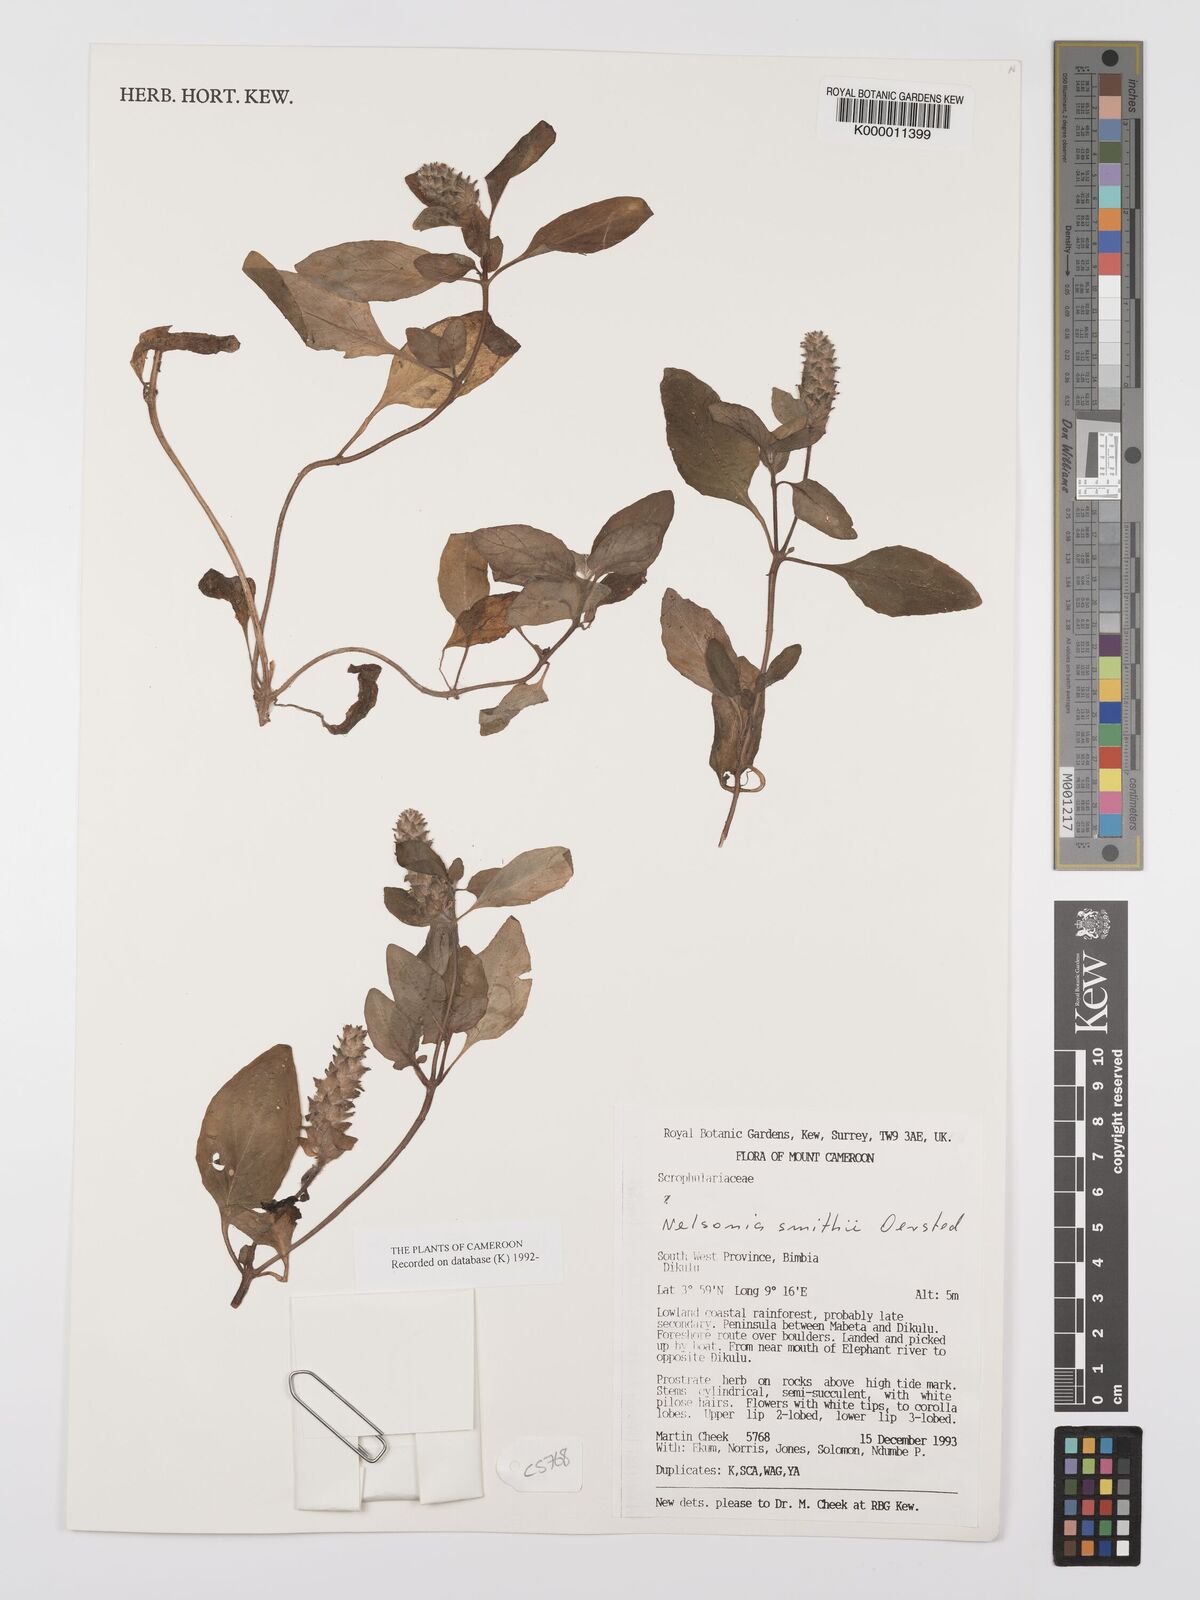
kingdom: Plantae
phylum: Tracheophyta
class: Magnoliopsida
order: Lamiales
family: Acanthaceae
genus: Nelsonia
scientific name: Nelsonia smithii
